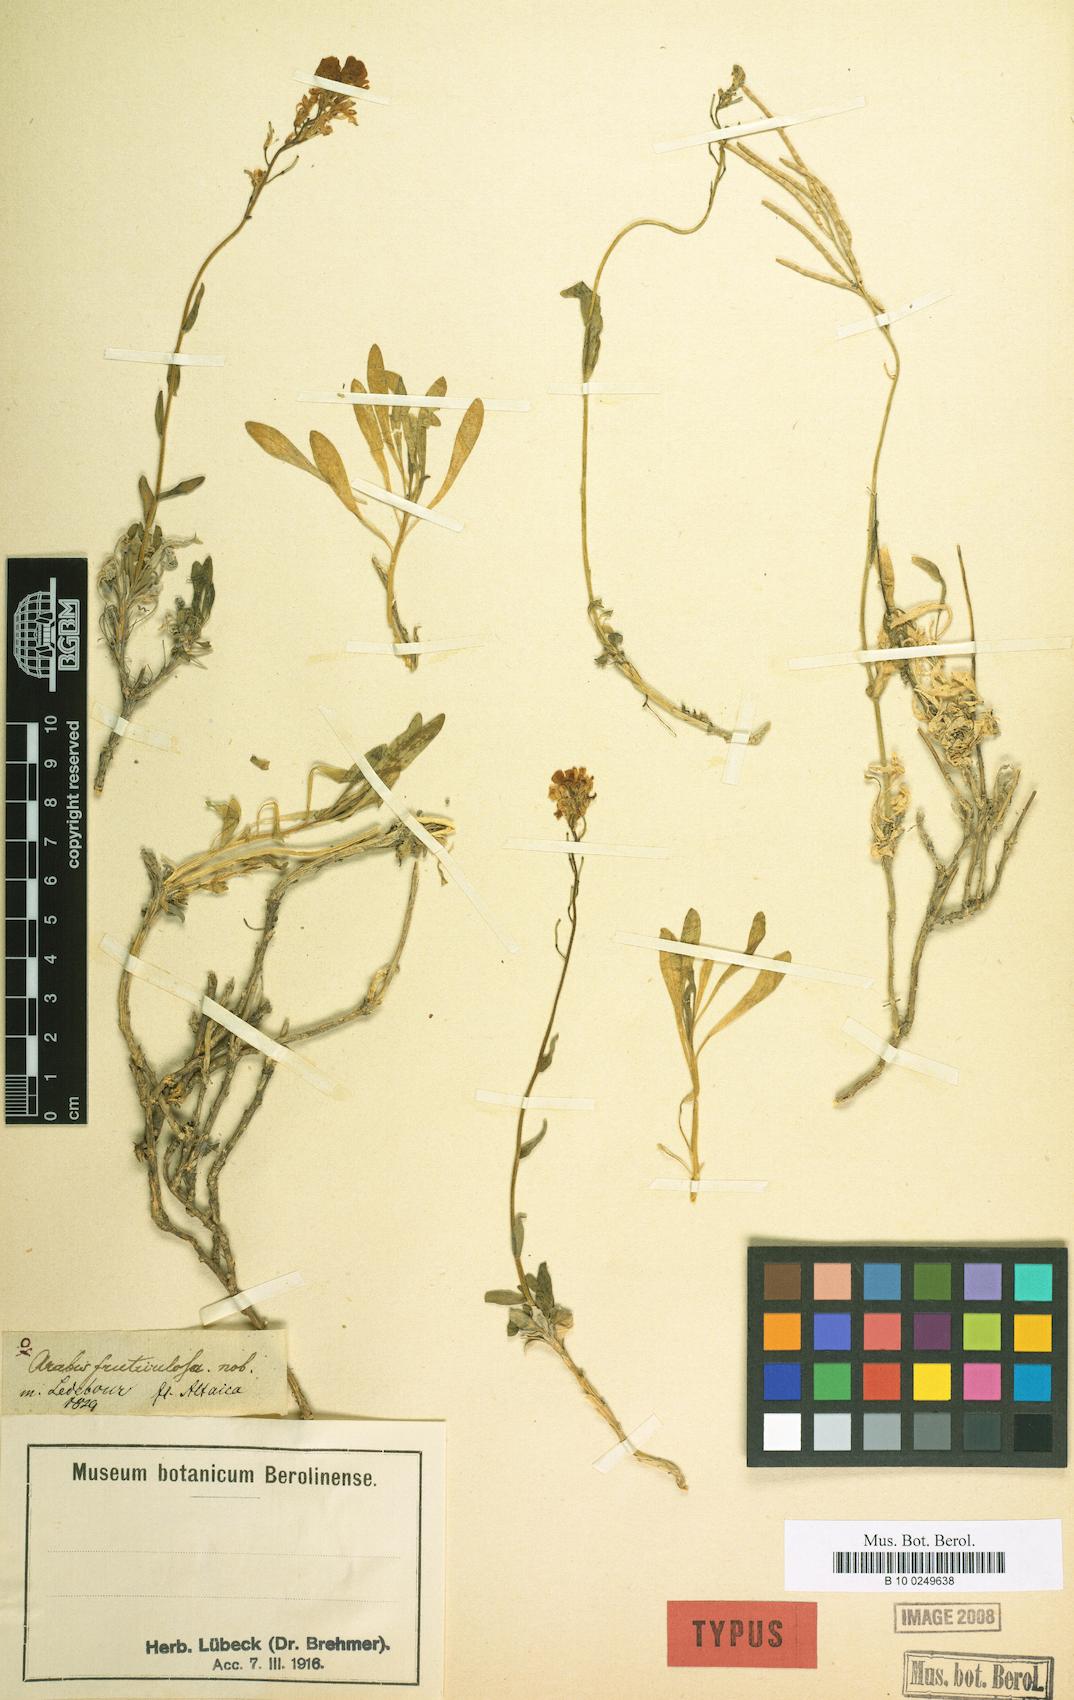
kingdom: Plantae
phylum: Tracheophyta
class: Magnoliopsida
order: Brassicales
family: Brassicaceae
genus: Dendroarabis
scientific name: Dendroarabis fruticulosa
